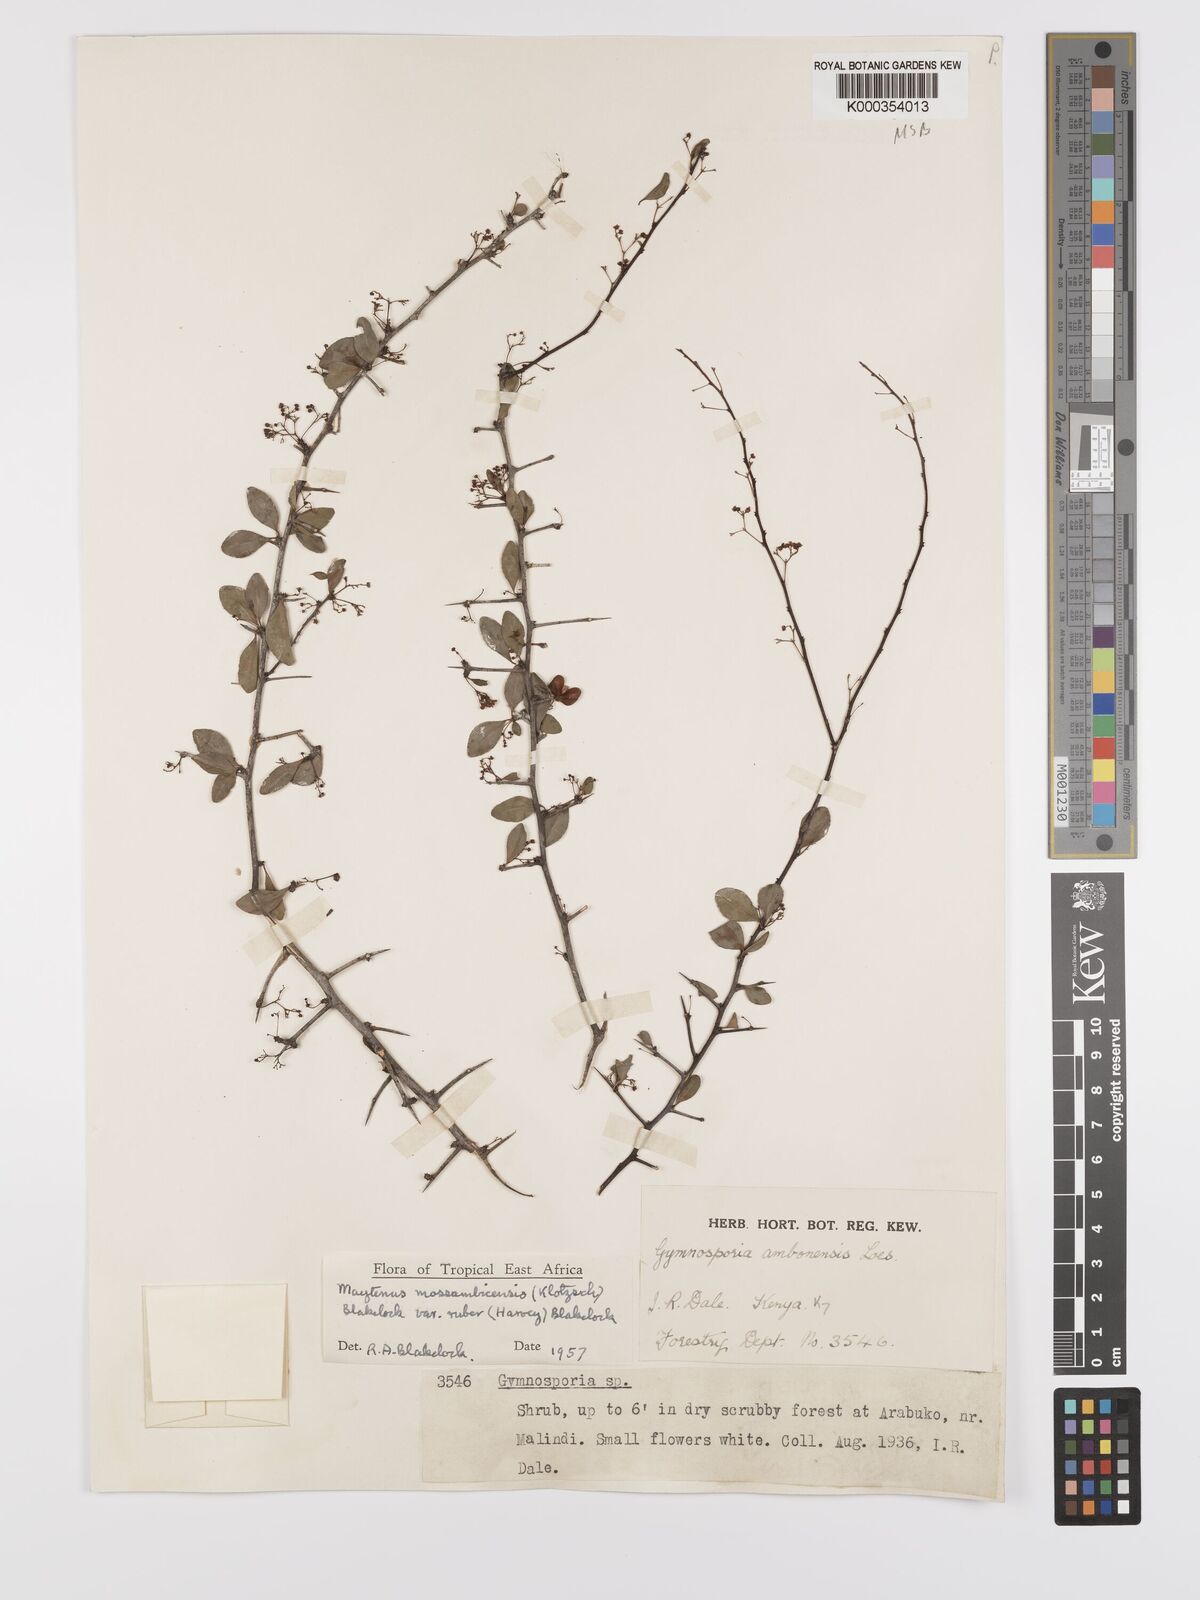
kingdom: Plantae
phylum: Tracheophyta
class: Magnoliopsida
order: Celastrales
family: Celastraceae
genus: Gymnosporia
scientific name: Gymnosporia mossambicensis
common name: Black forest spike-thorn
